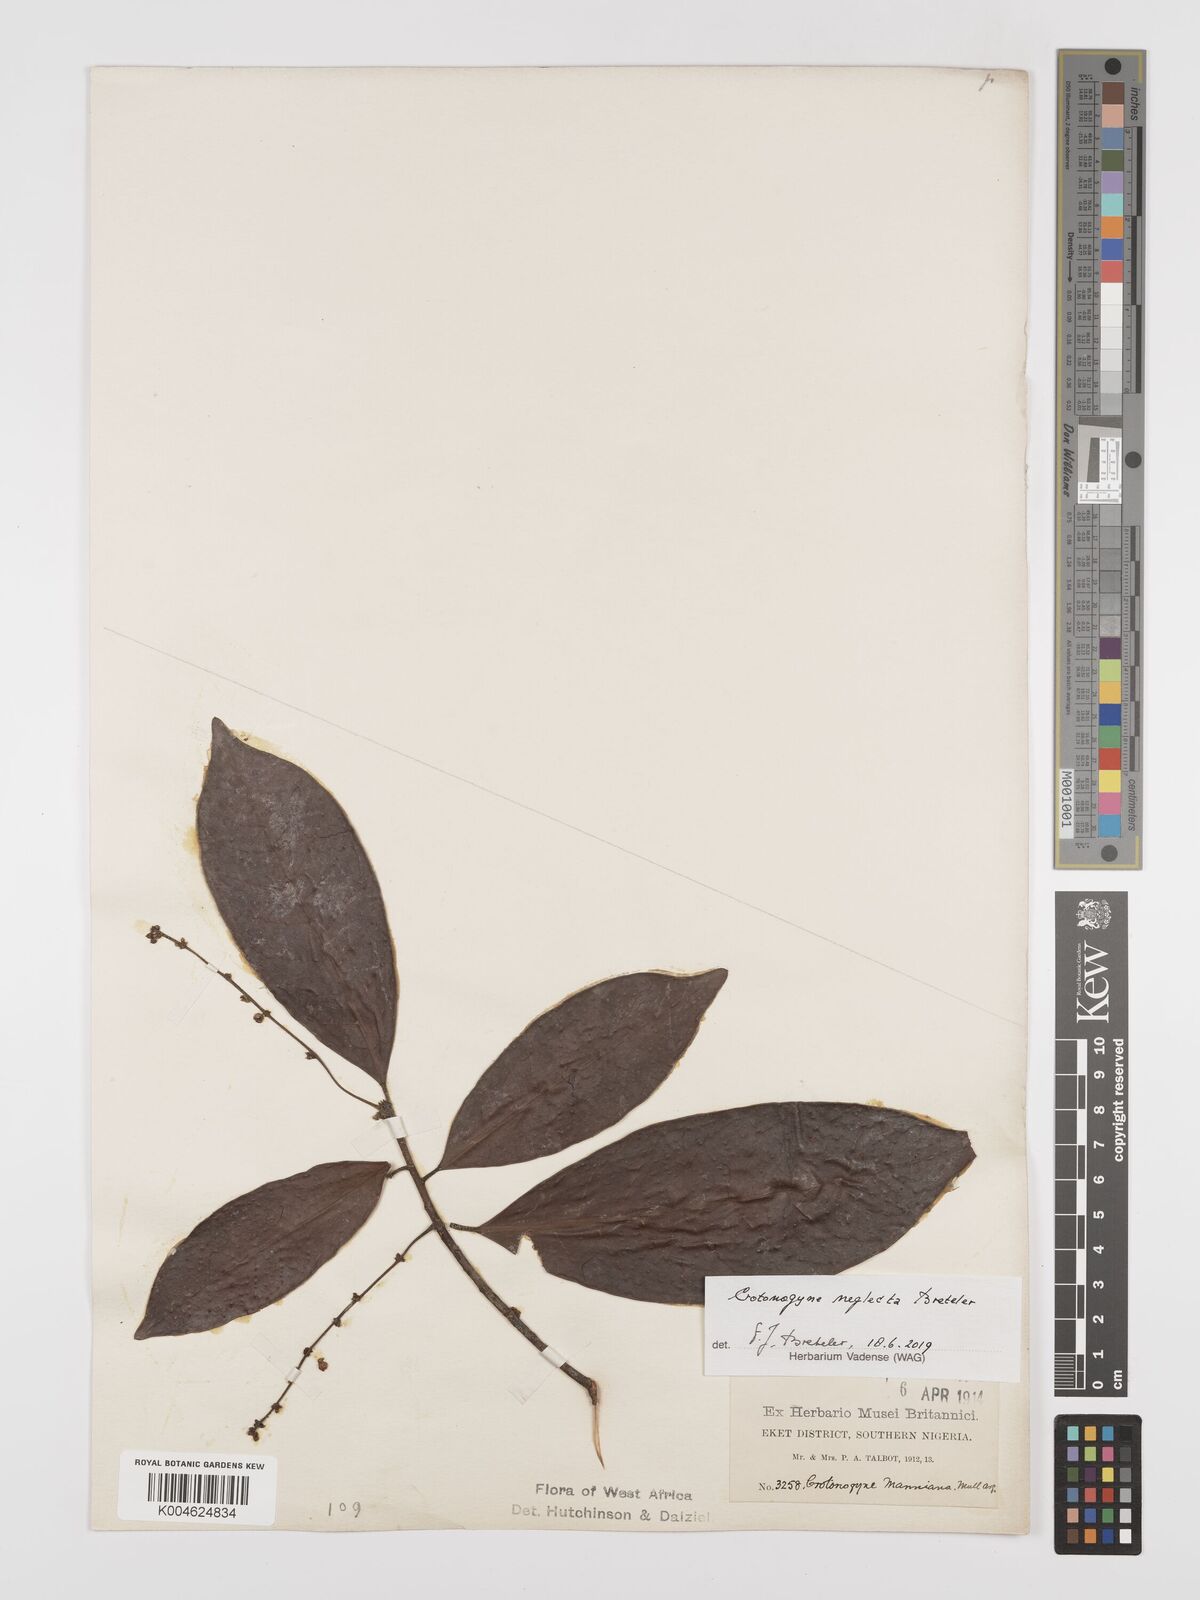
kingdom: Plantae
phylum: Tracheophyta
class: Magnoliopsida
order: Malpighiales
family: Euphorbiaceae
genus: Crotonogyne
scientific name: Crotonogyne neglecta
